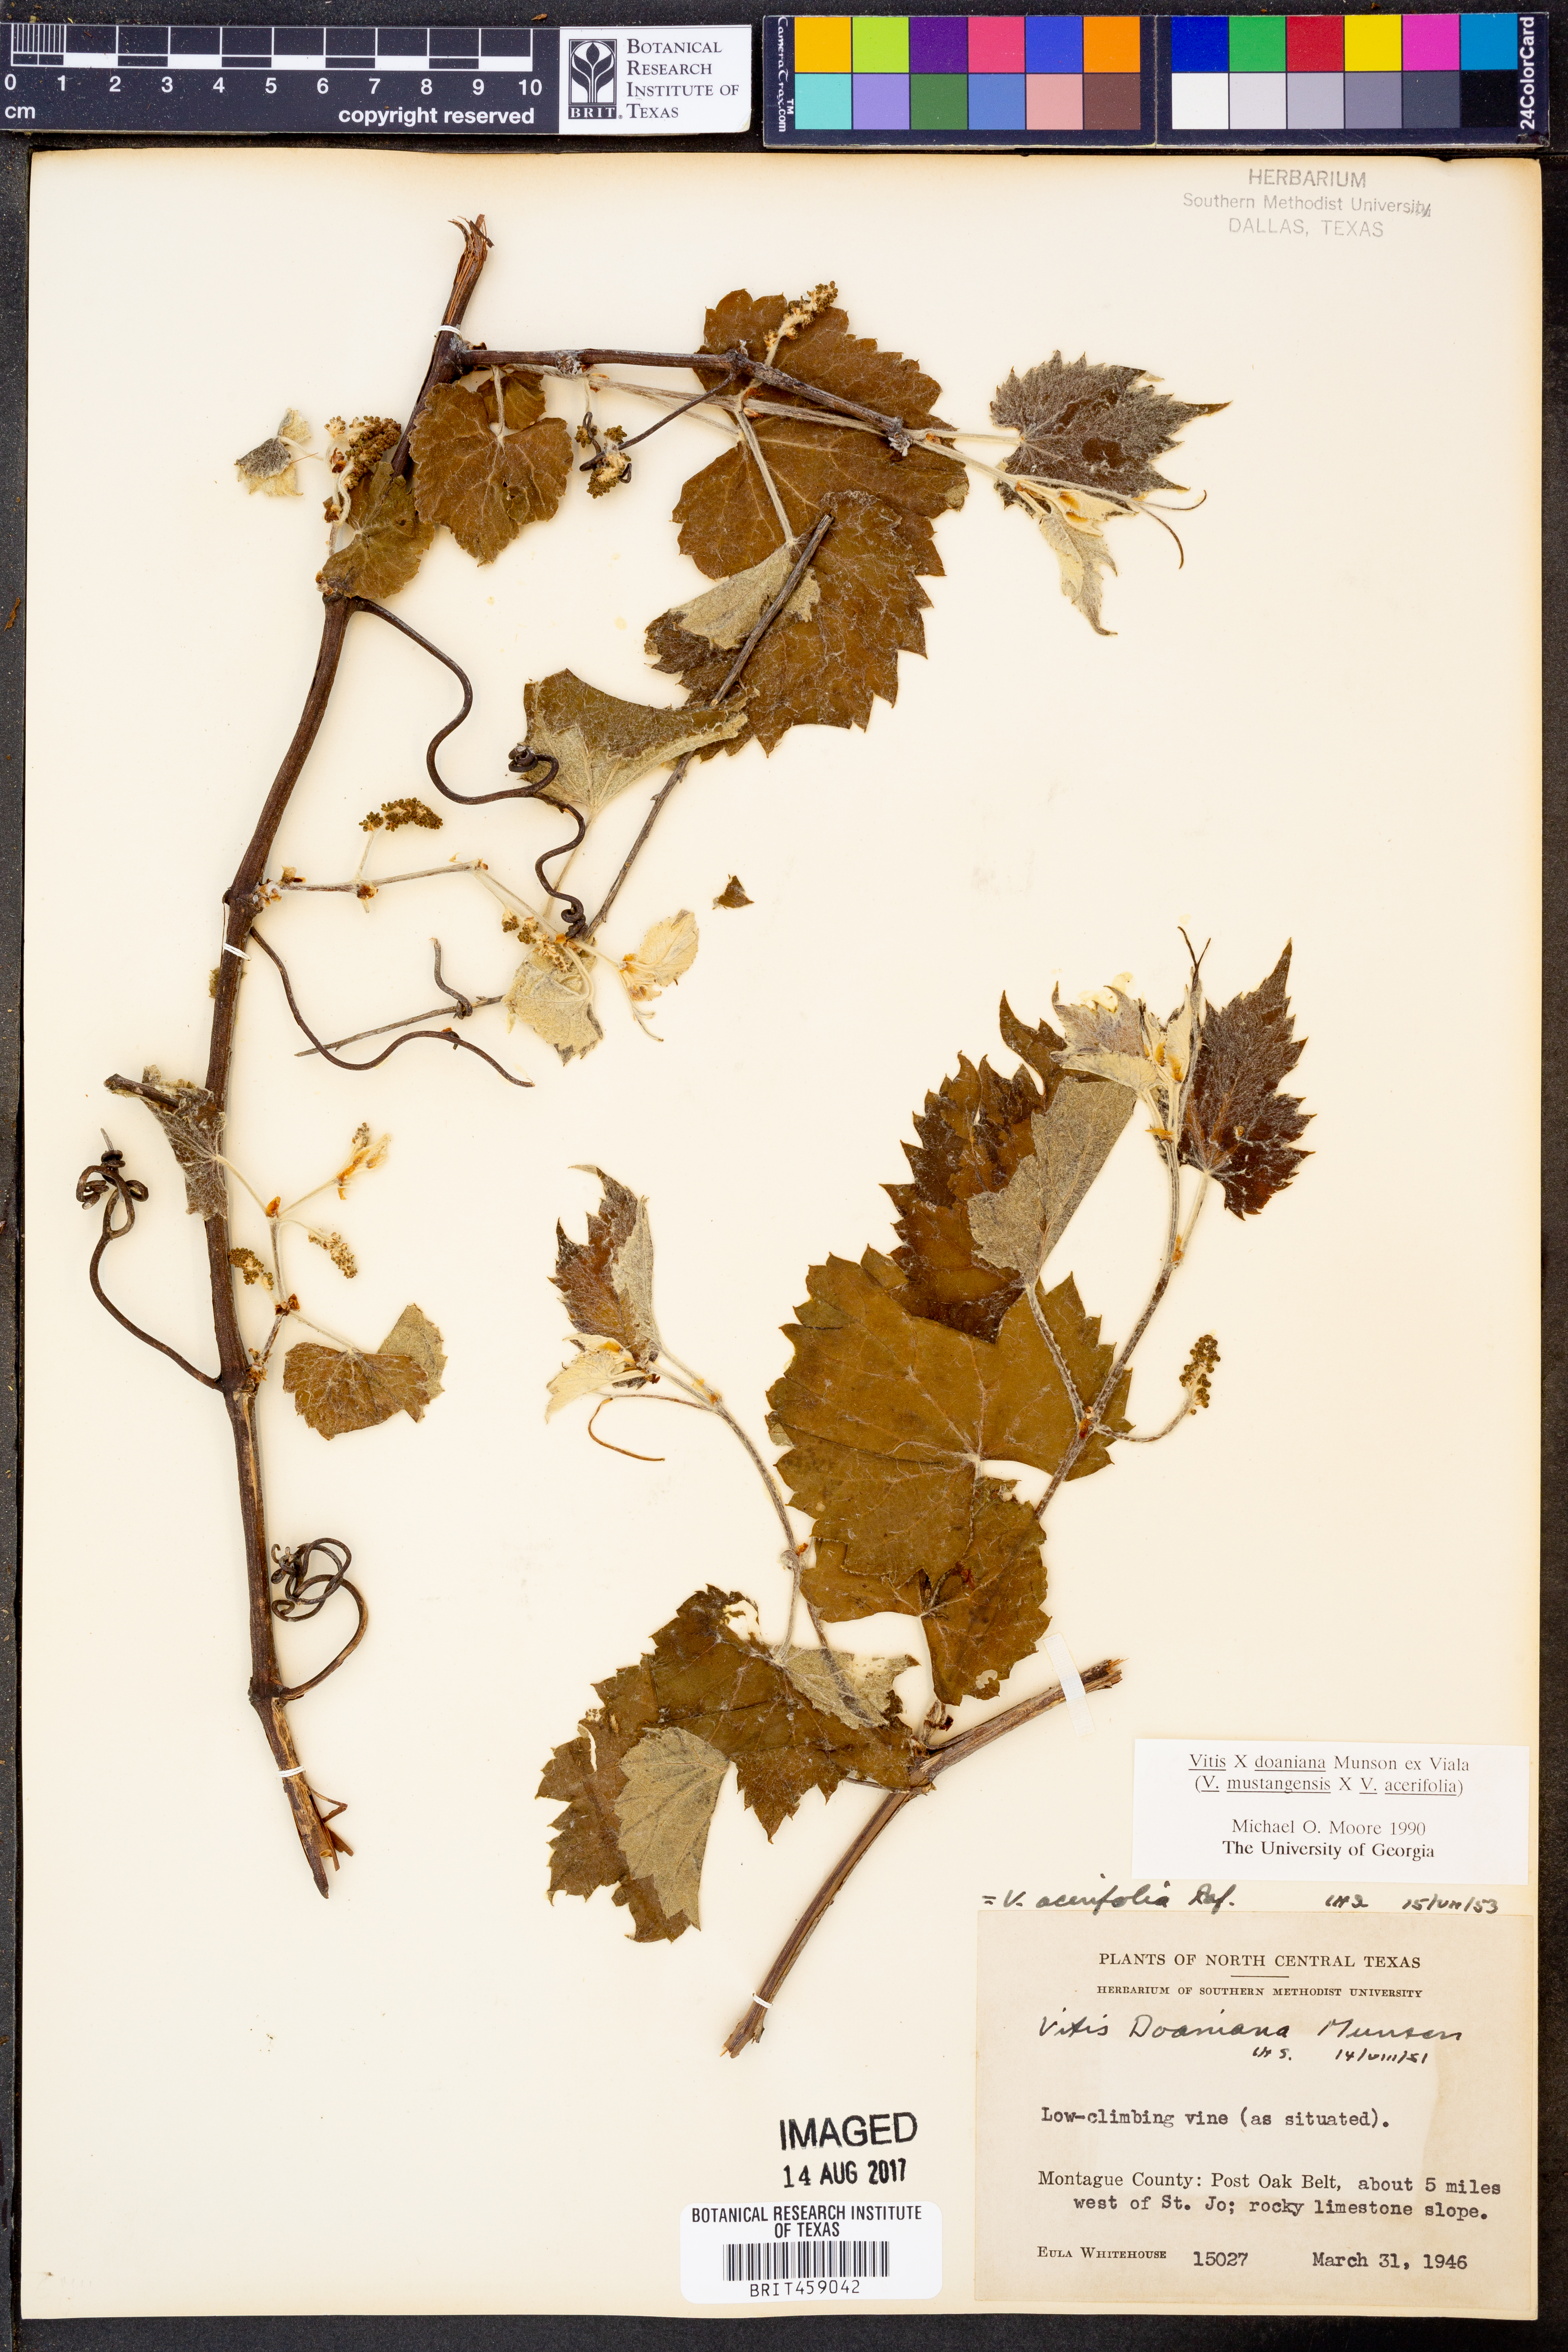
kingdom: Plantae
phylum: Tracheophyta
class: Magnoliopsida
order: Vitales
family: Vitaceae
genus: Vitis
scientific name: Vitis
